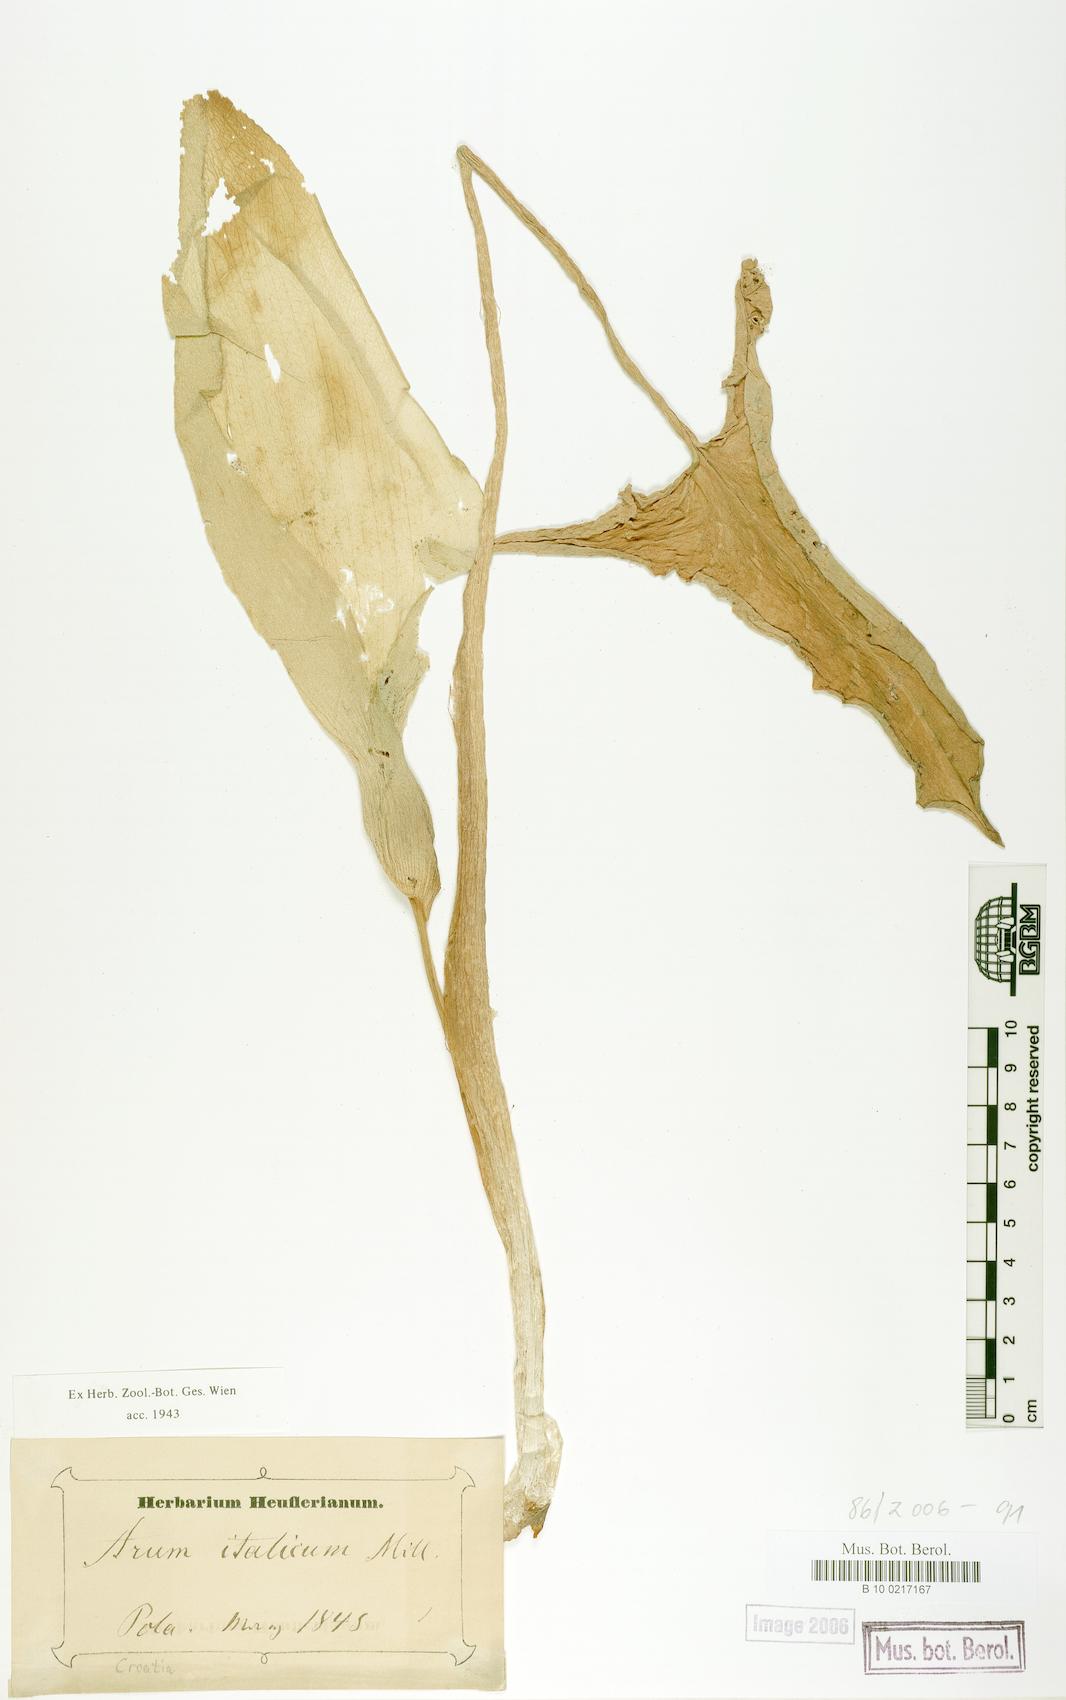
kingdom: Plantae
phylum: Tracheophyta
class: Liliopsida
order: Alismatales
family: Araceae
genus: Arum
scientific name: Arum italicum
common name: Italian lords-and-ladies
